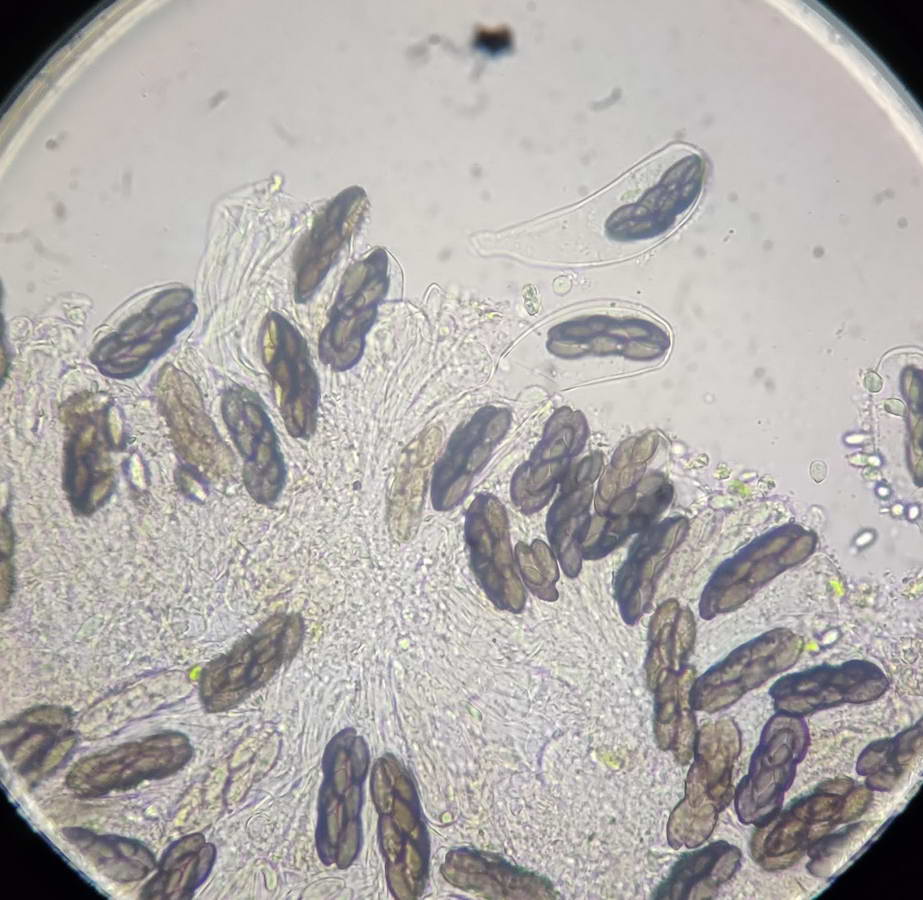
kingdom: Fungi
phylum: Ascomycota
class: Pezizomycetes
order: Pezizales
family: Ascobolaceae
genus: Saccobolus
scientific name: Saccobolus versicolor
